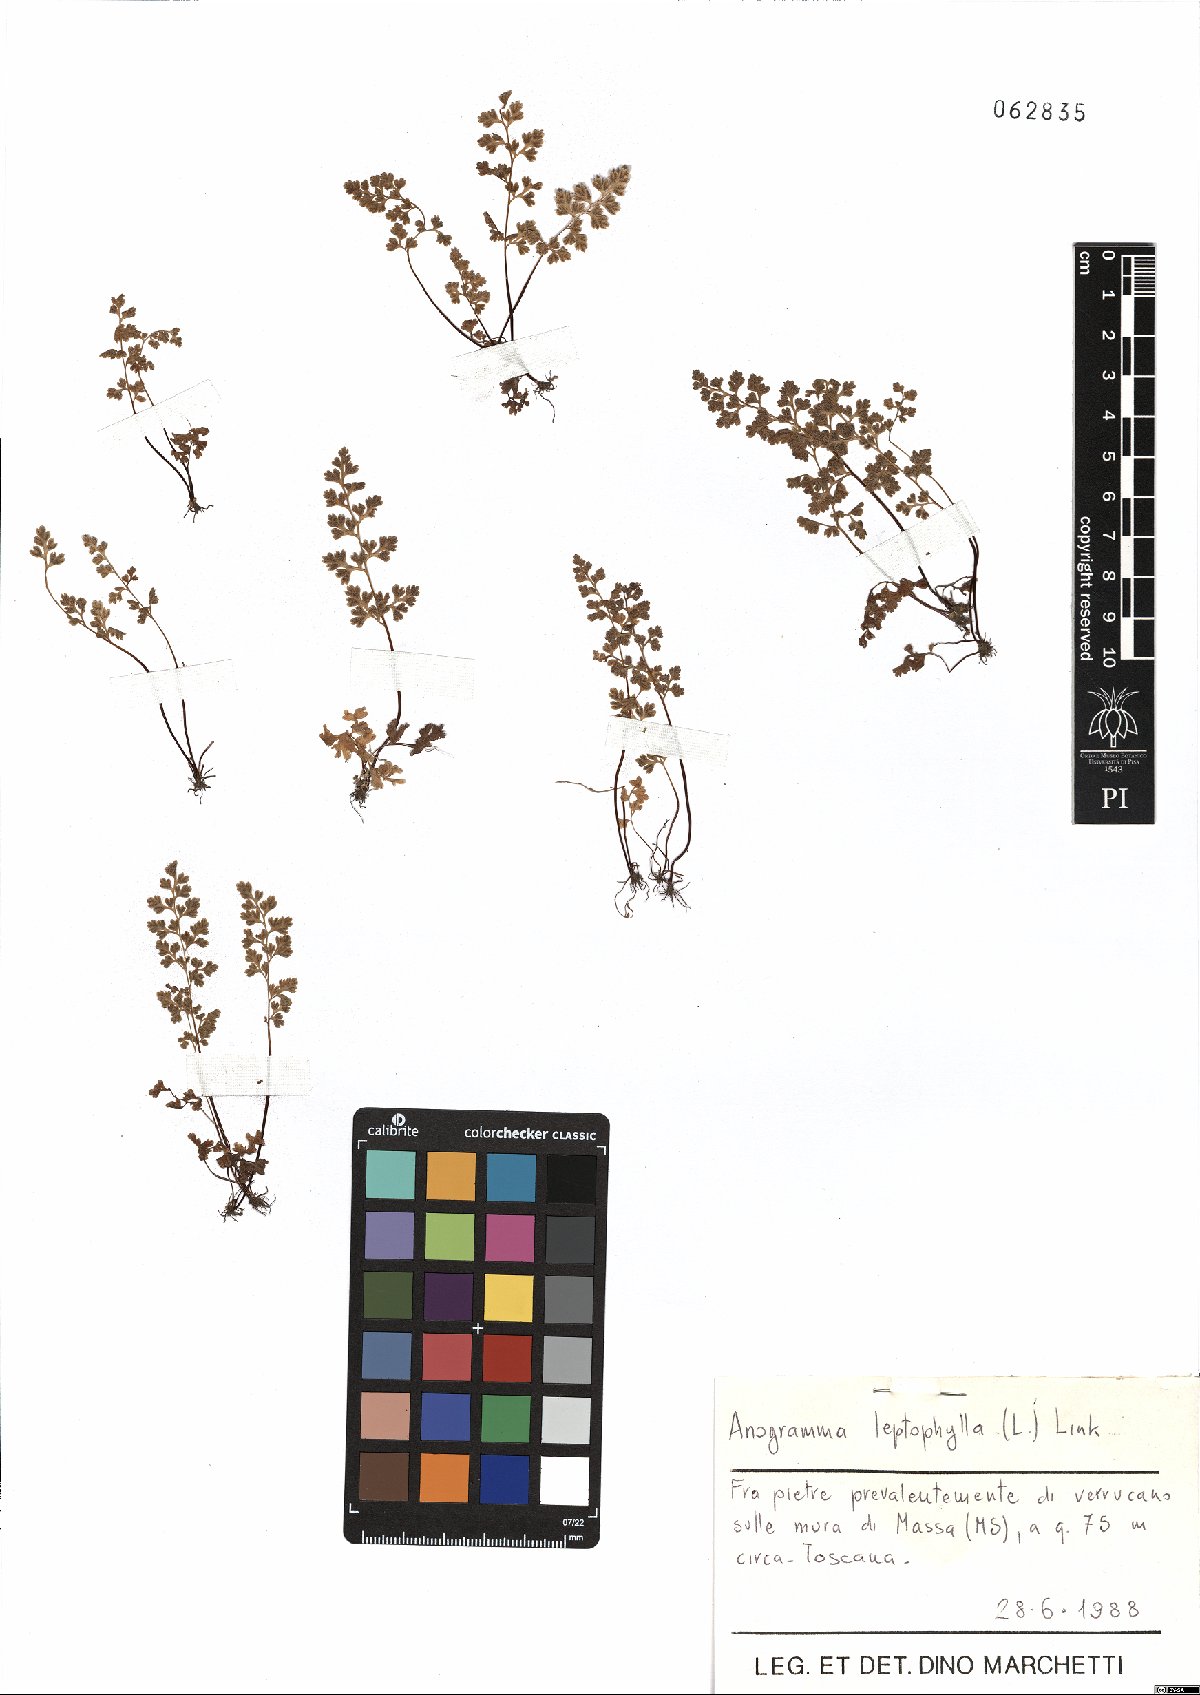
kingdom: Plantae
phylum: Tracheophyta
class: Polypodiopsida
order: Polypodiales
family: Pteridaceae
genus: Anogramma
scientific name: Anogramma leptophylla
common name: Jersey fern
